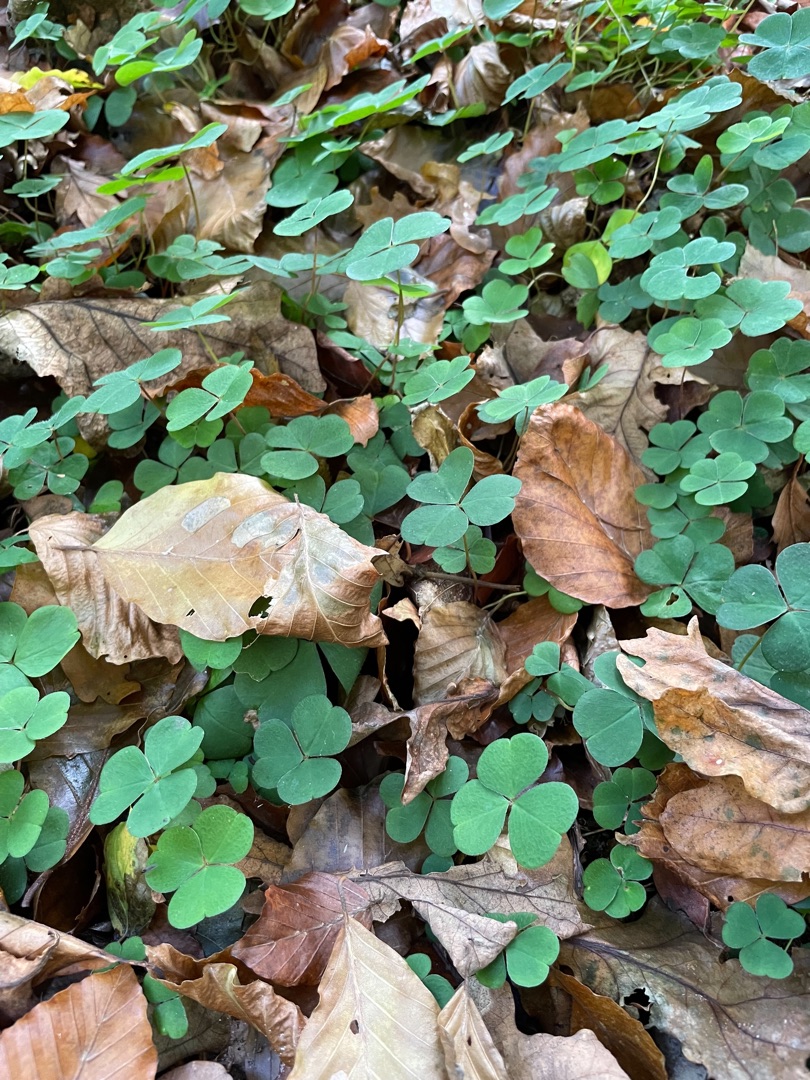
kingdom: Plantae
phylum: Tracheophyta
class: Magnoliopsida
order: Oxalidales
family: Oxalidaceae
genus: Oxalis
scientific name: Oxalis acetosella
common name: Skovsyre
